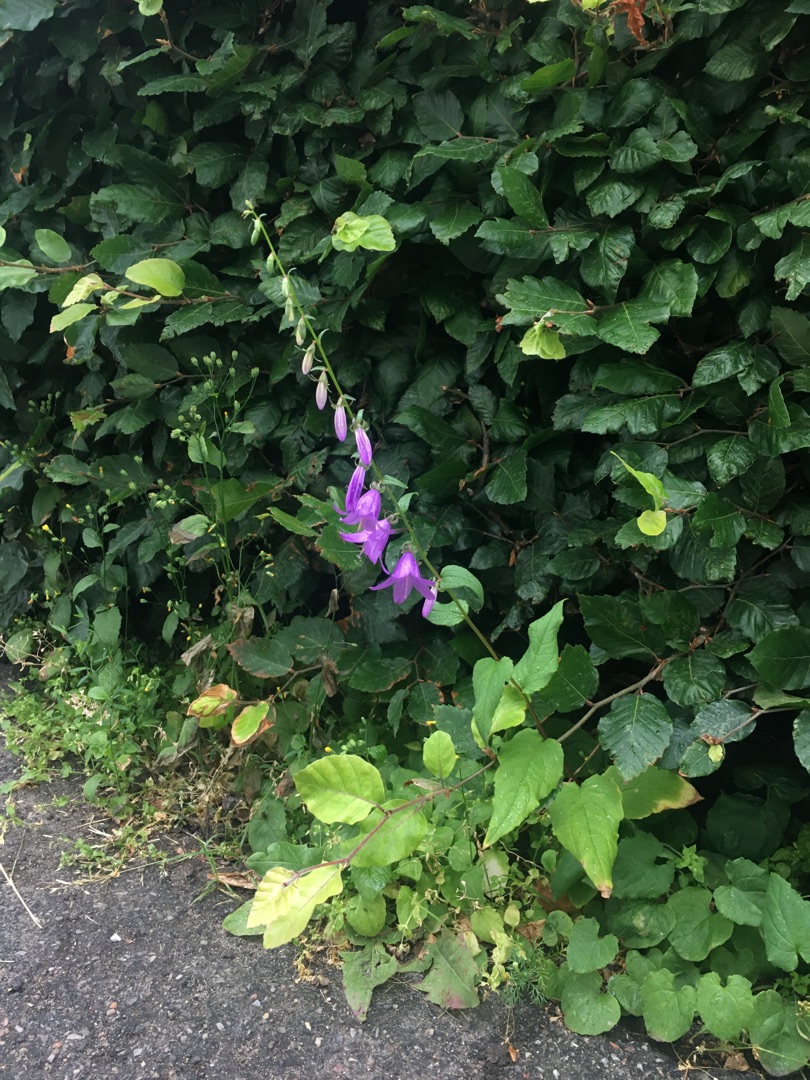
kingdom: Plantae
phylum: Tracheophyta
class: Magnoliopsida
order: Asterales
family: Campanulaceae
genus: Campanula
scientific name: Campanula rapunculoides
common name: Ensidig klokke
